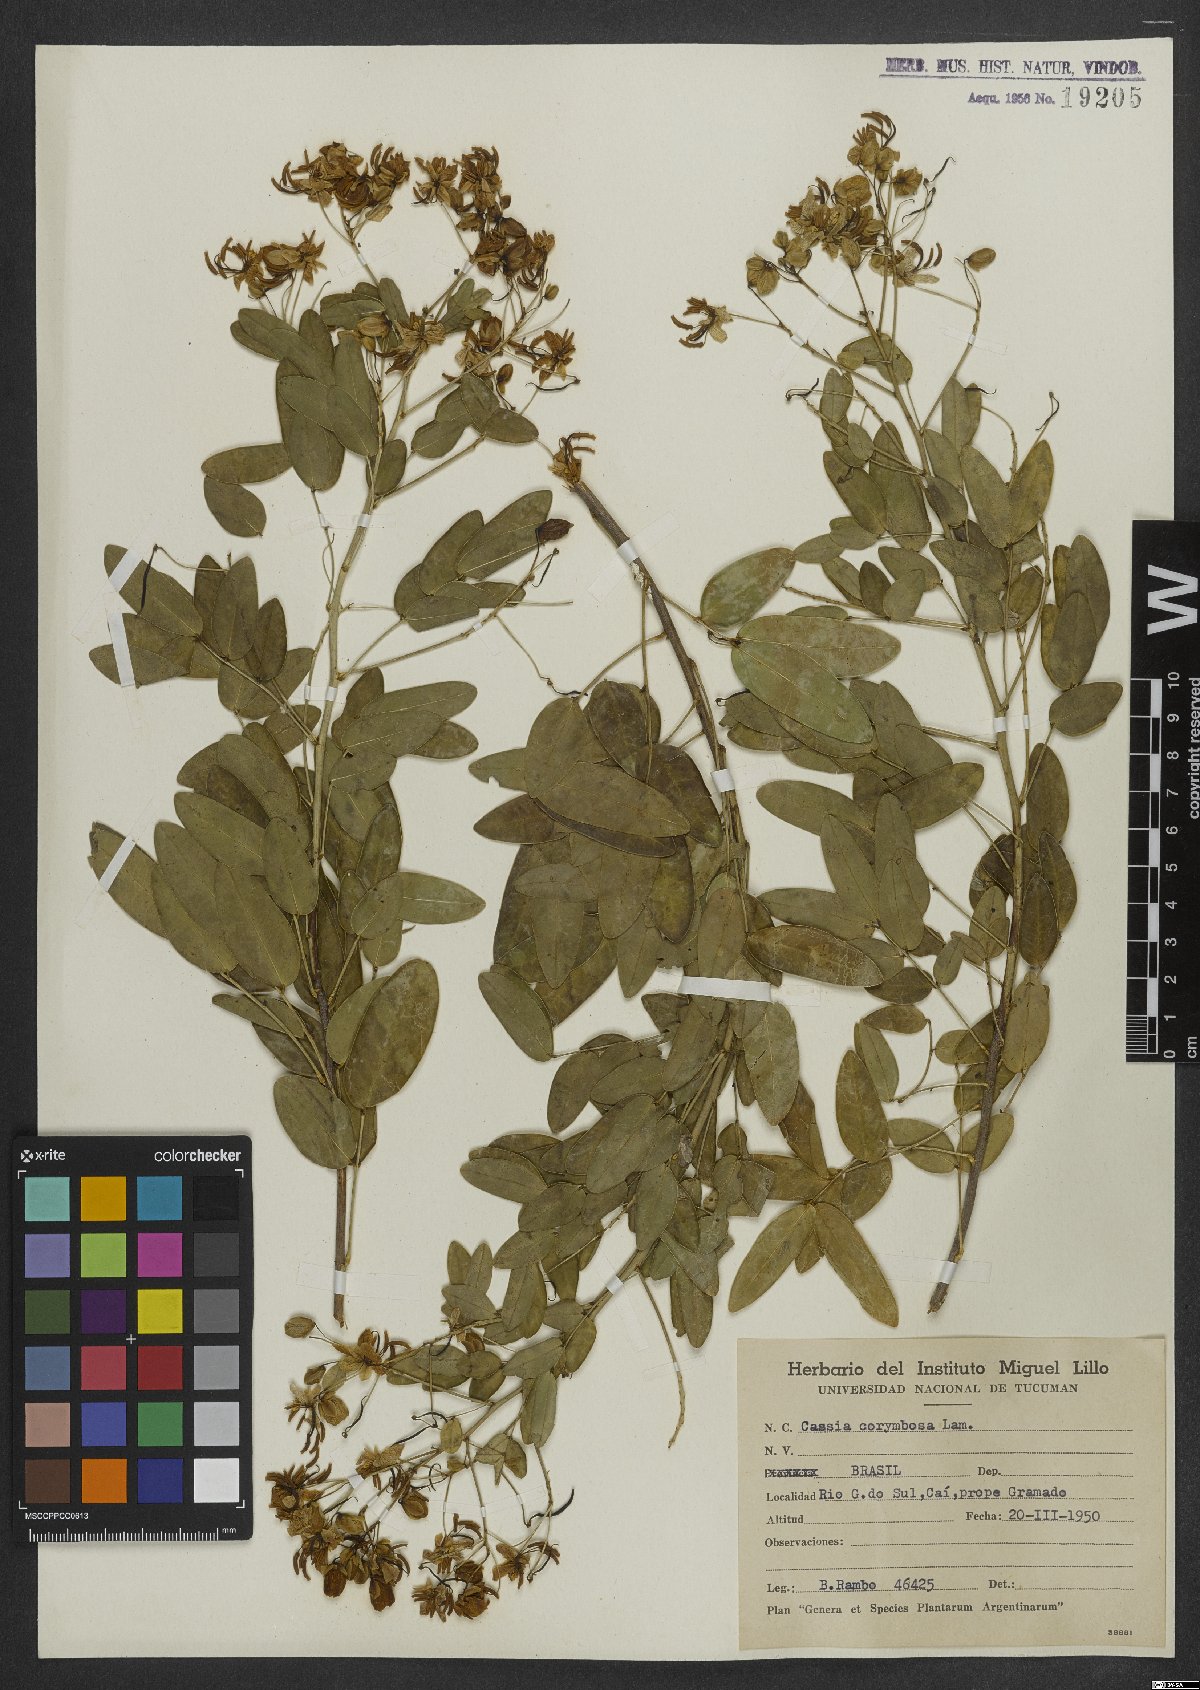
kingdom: Plantae
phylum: Tracheophyta
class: Magnoliopsida
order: Fabales
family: Fabaceae
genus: Senna
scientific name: Senna corymbosa
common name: Argentine senna
